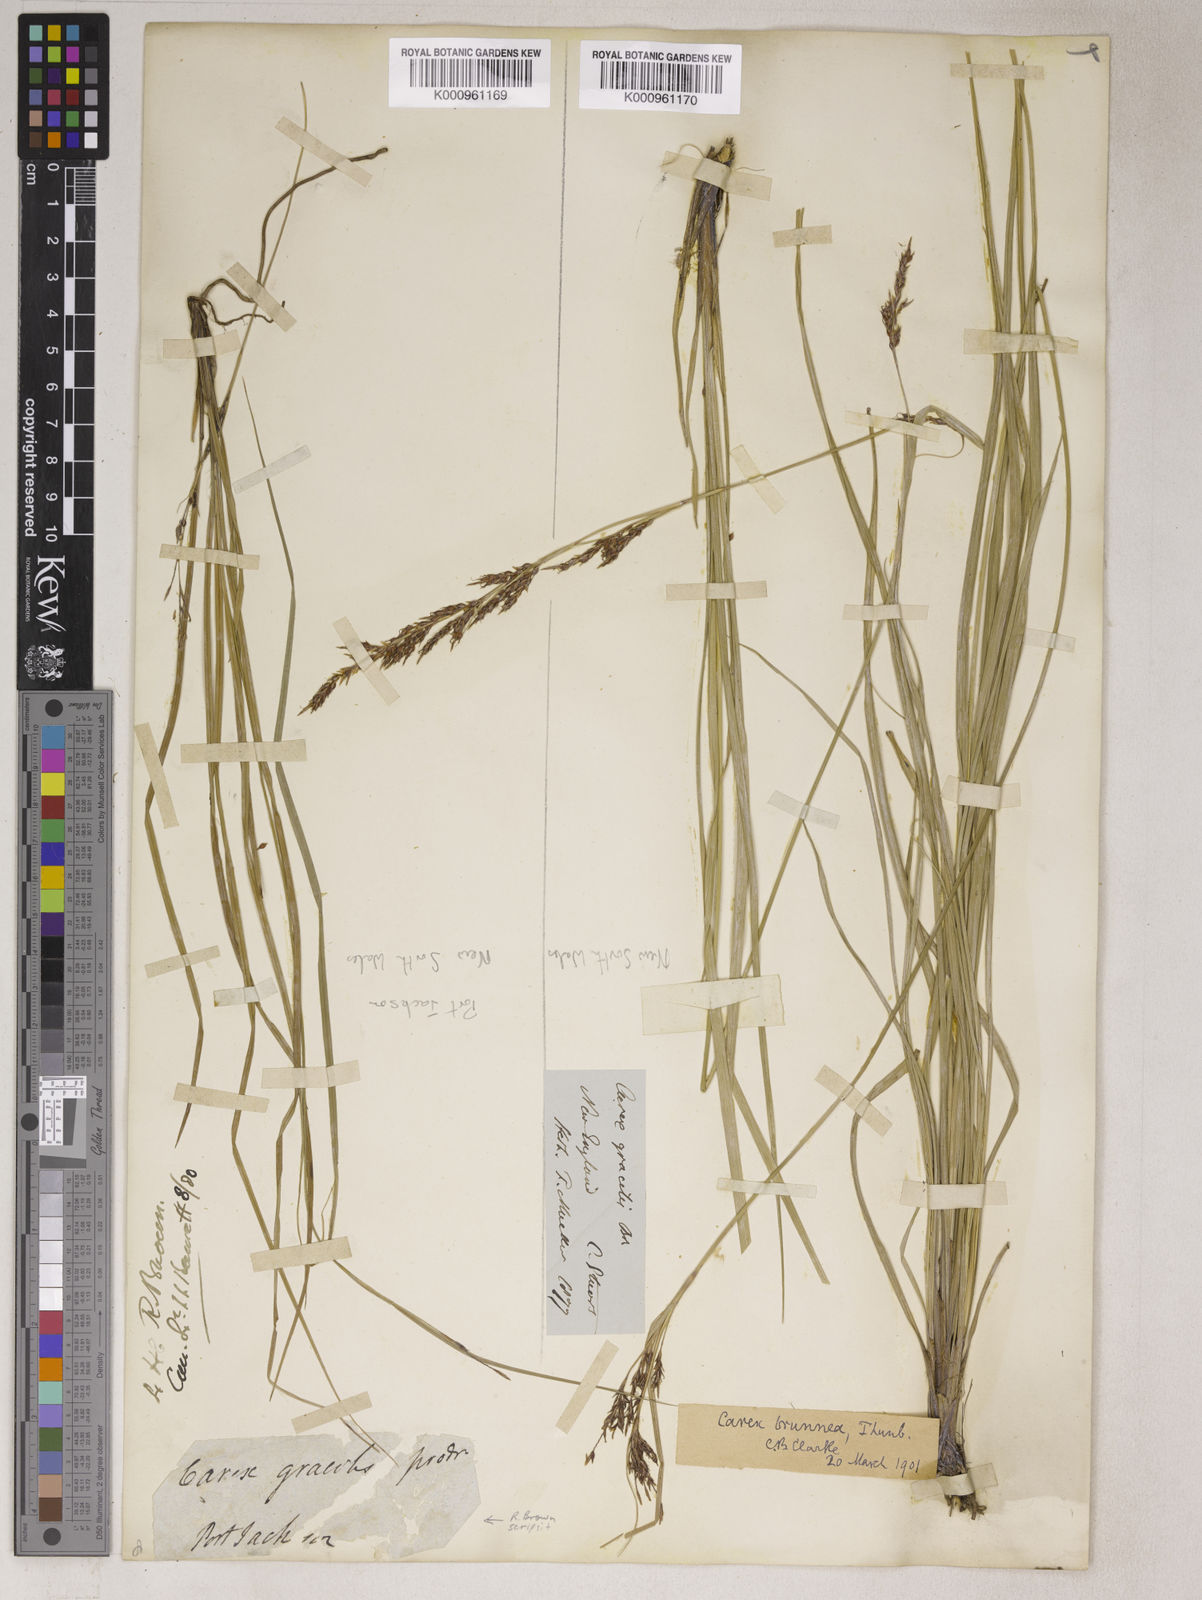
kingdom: Plantae
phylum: Tracheophyta
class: Liliopsida
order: Poales
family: Cyperaceae
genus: Carex
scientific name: Carex brunnea
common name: Greater brown sedge
